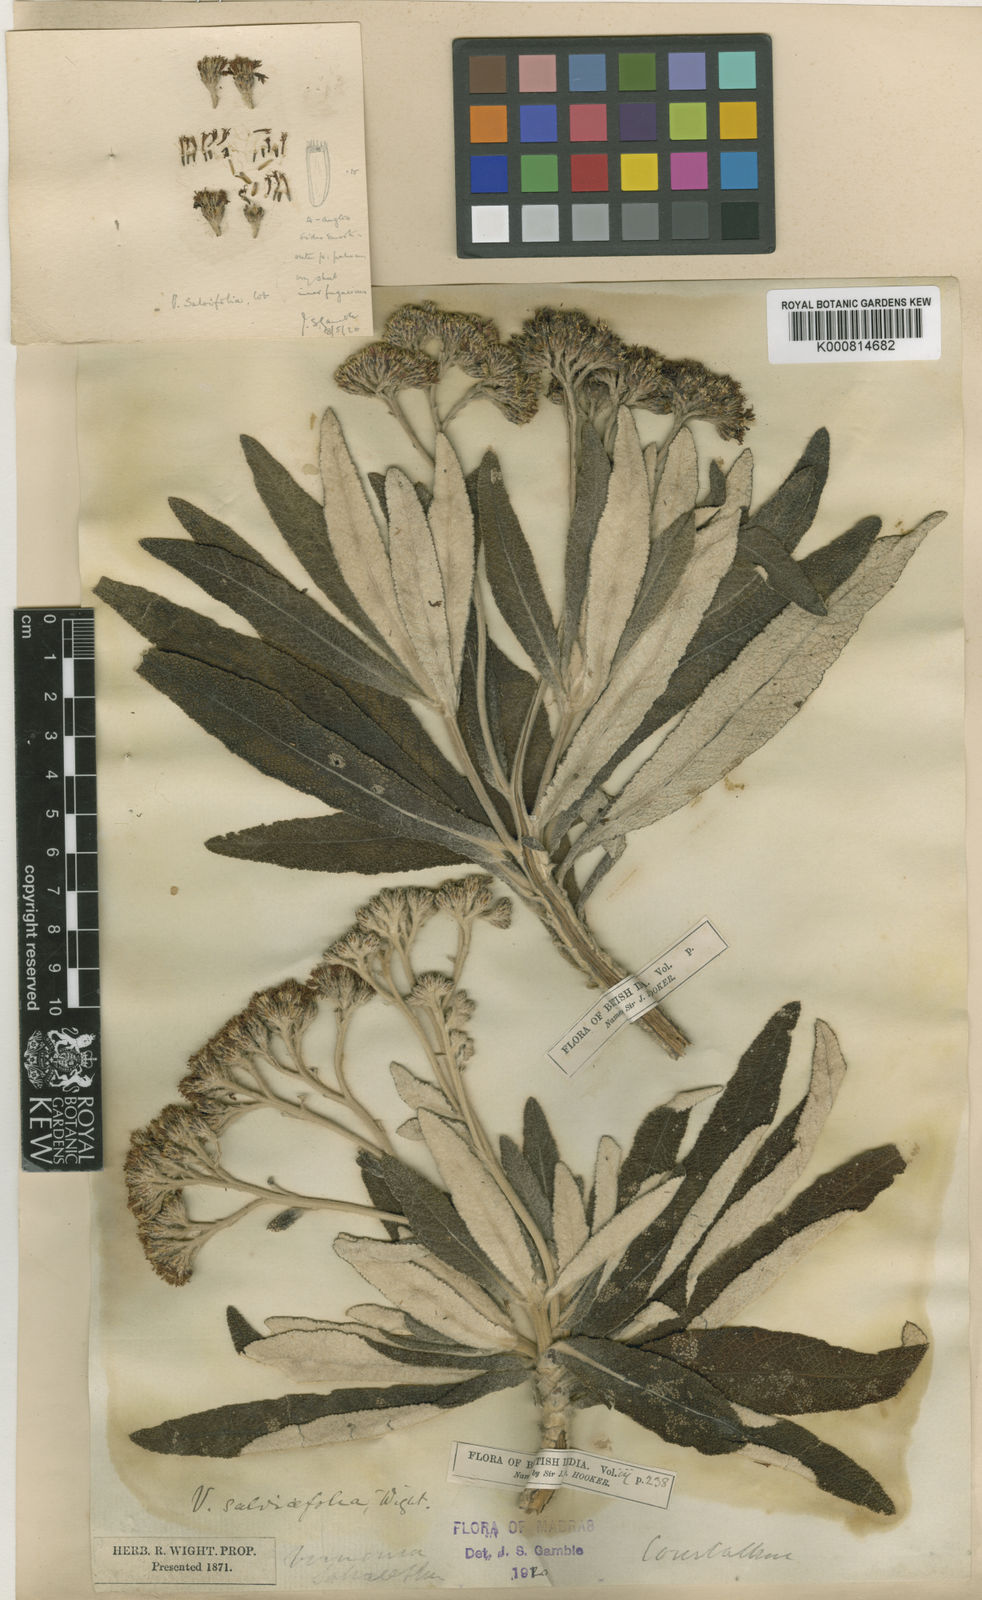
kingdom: Plantae
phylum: Tracheophyta
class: Magnoliopsida
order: Asterales
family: Asteraceae
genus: Uniyala
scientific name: Uniyala salviifolia
